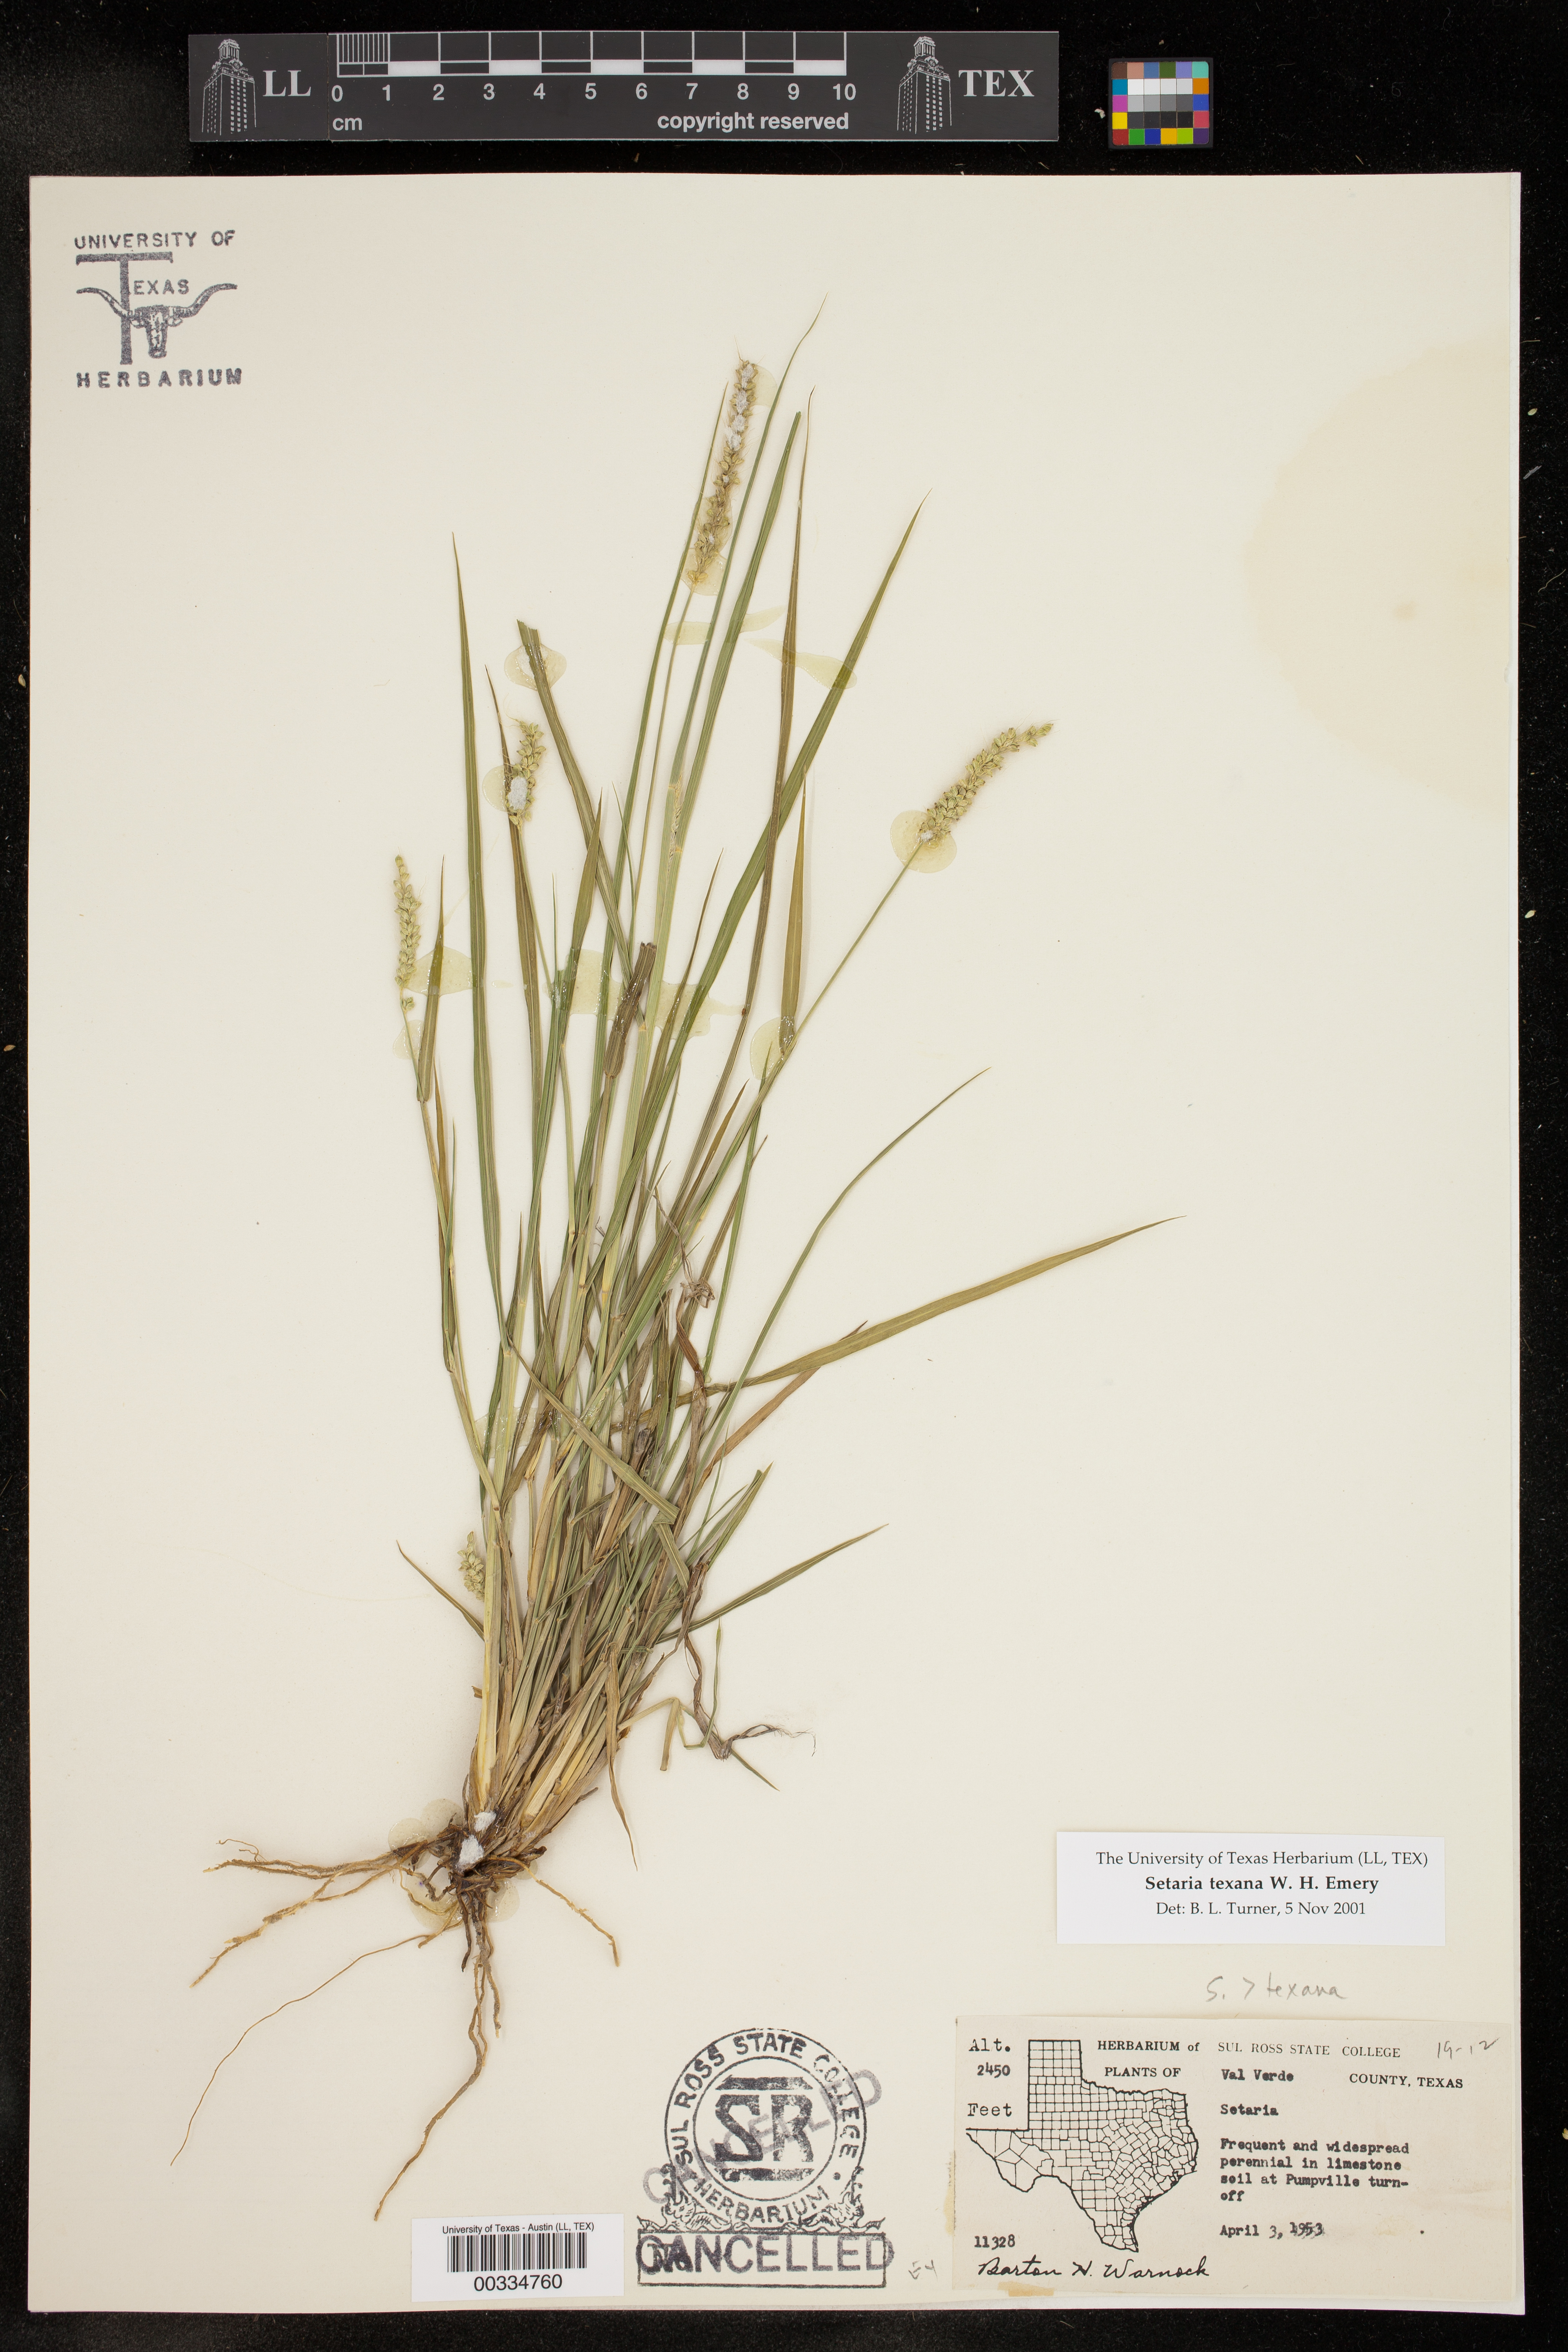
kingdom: Plantae
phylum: Tracheophyta
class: Liliopsida
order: Poales
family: Poaceae
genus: Setaria
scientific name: Setaria texana
